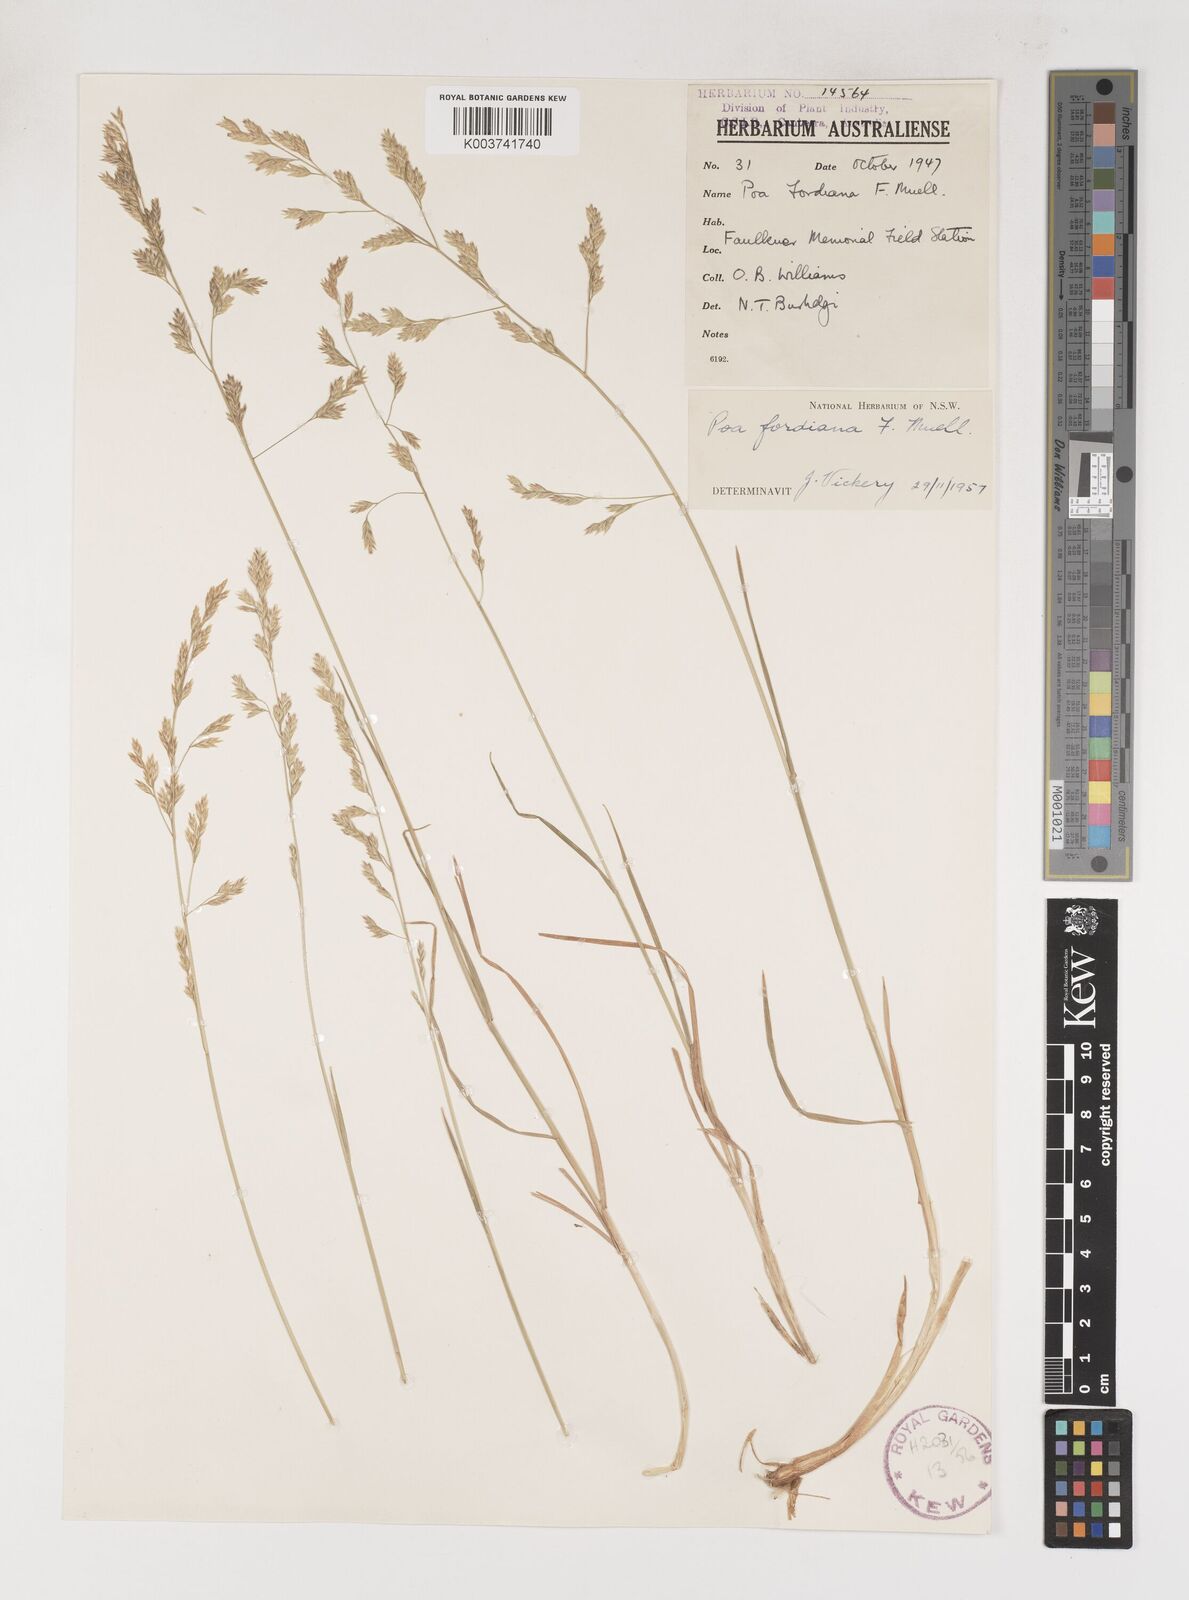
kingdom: Plantae
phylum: Tracheophyta
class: Liliopsida
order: Poales
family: Poaceae
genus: Poa
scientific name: Poa fordeana
